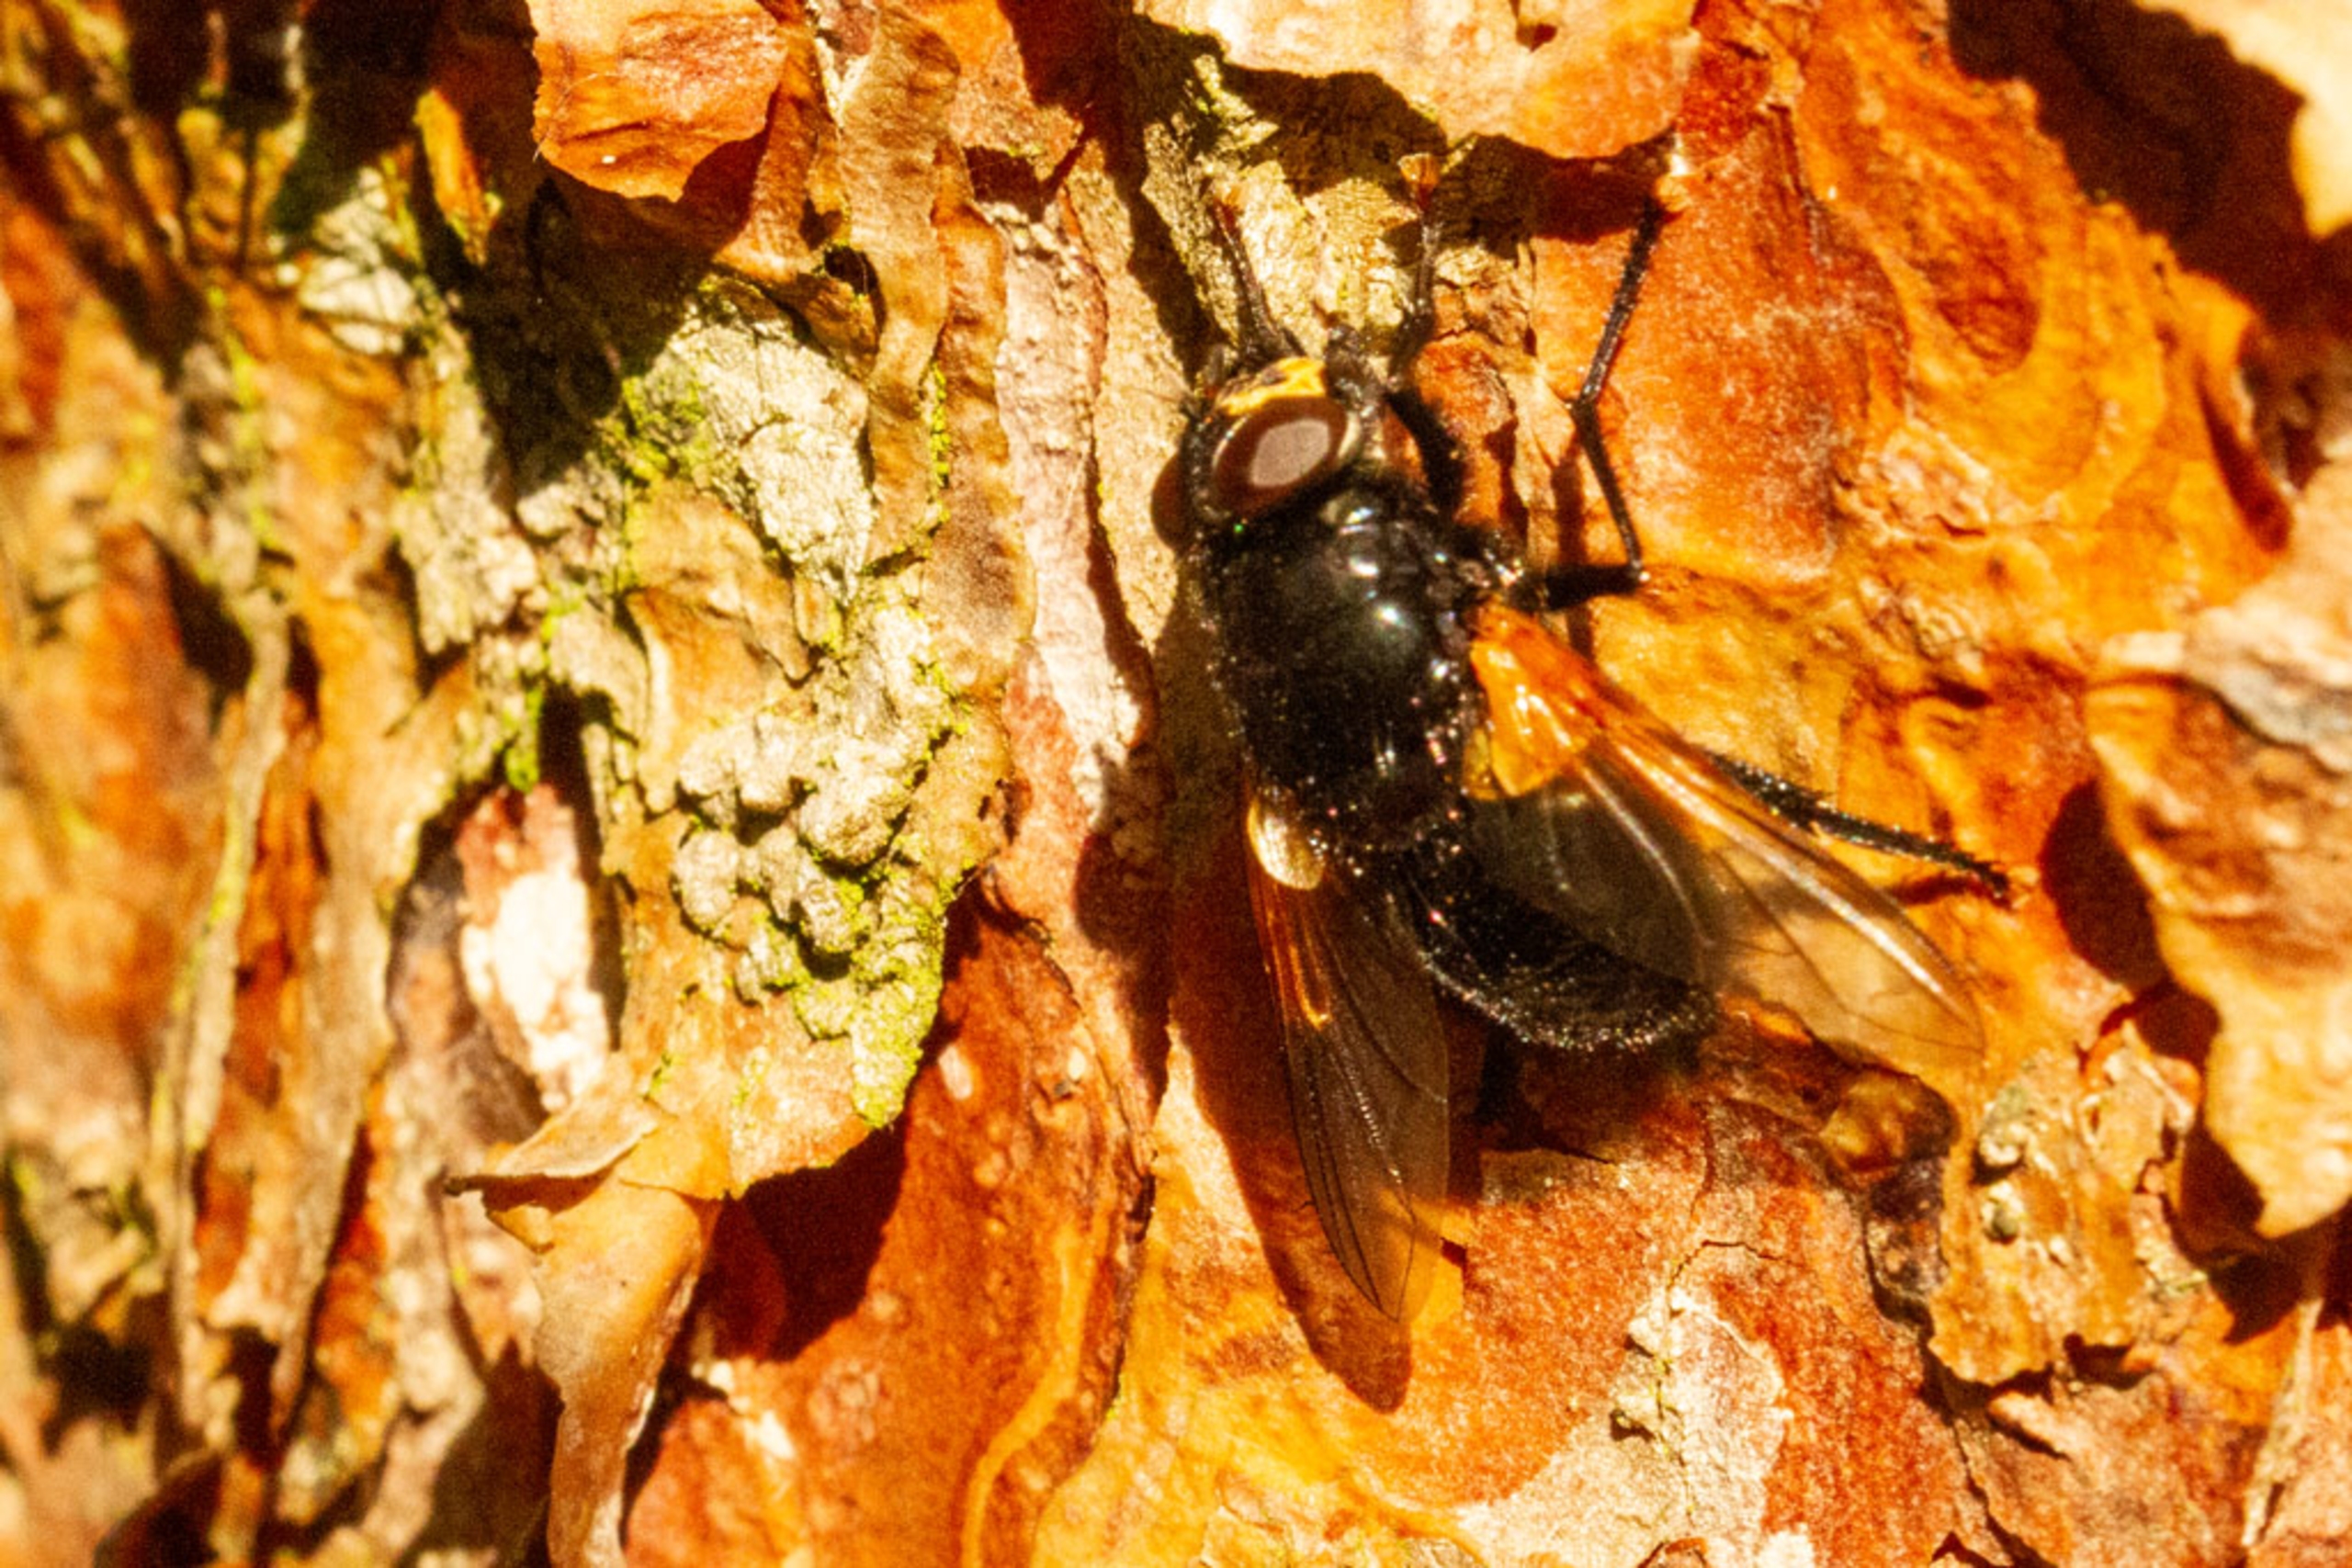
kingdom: Animalia
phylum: Arthropoda
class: Insecta
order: Diptera
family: Muscidae
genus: Mesembrina
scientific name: Mesembrina meridiana
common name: Gulvinget flue
